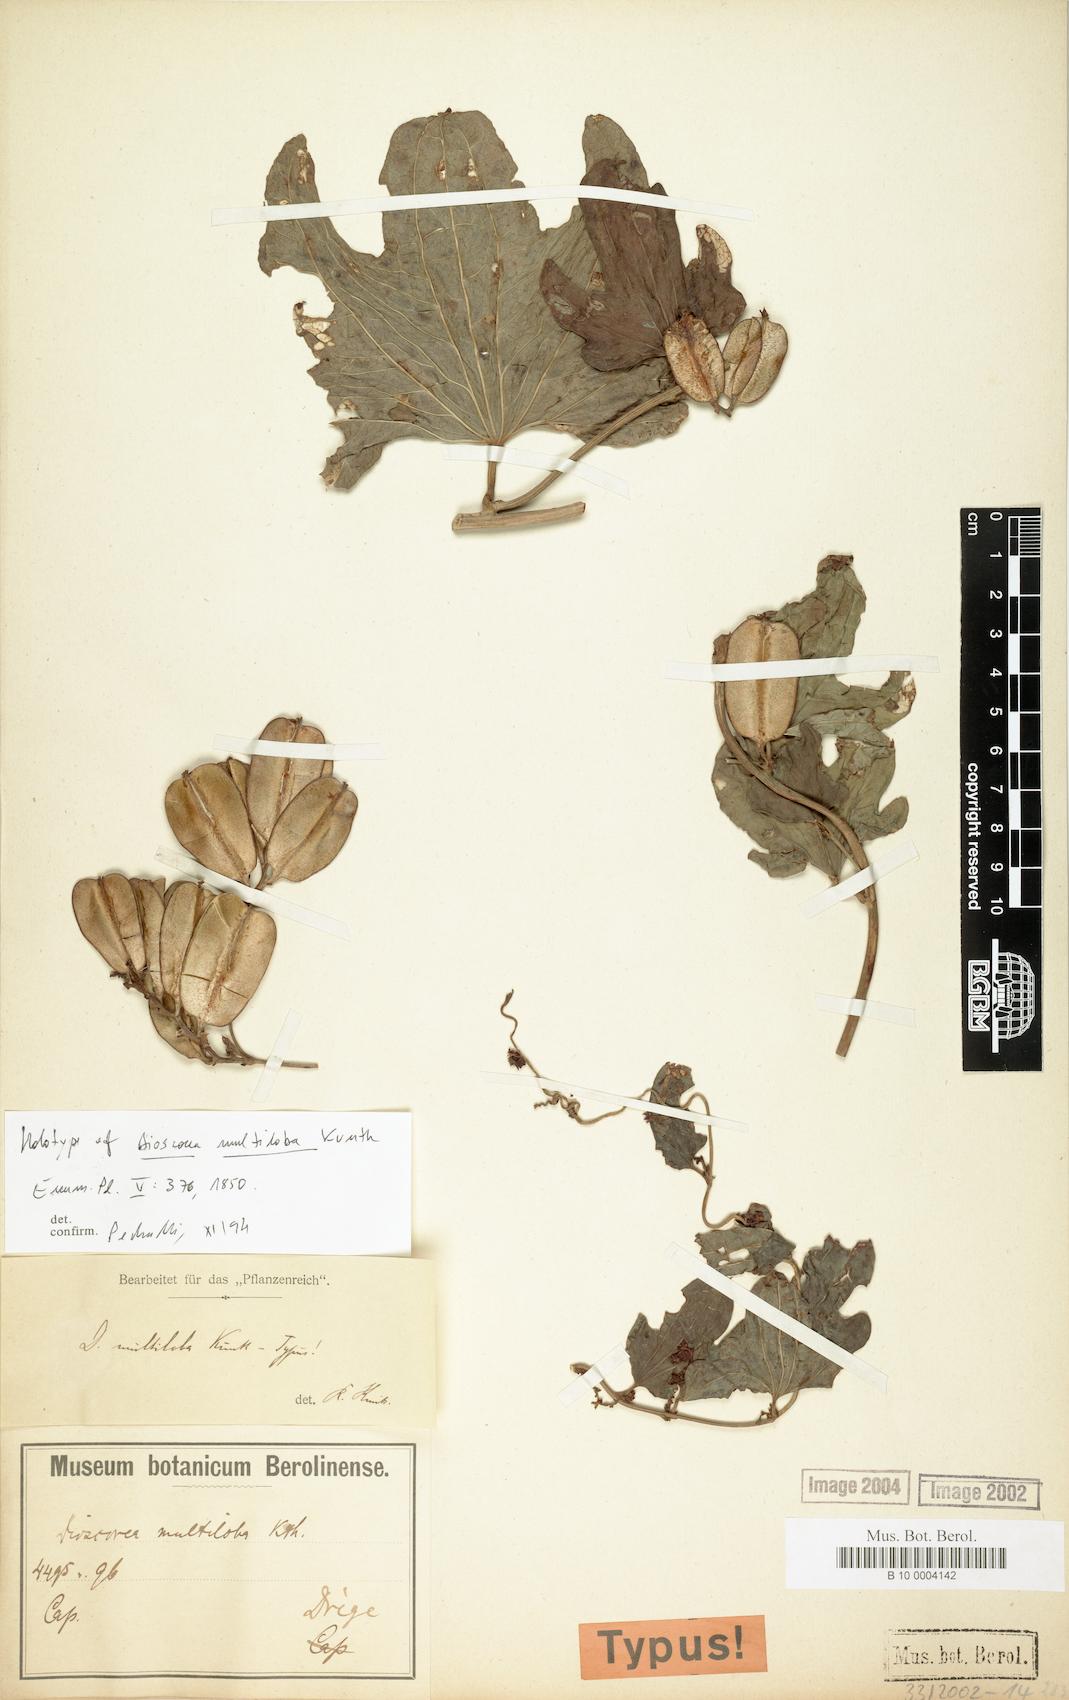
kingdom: Plantae
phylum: Tracheophyta
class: Liliopsida
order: Dioscoreales
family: Dioscoreaceae
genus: Dioscorea
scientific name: Dioscorea multiloba
